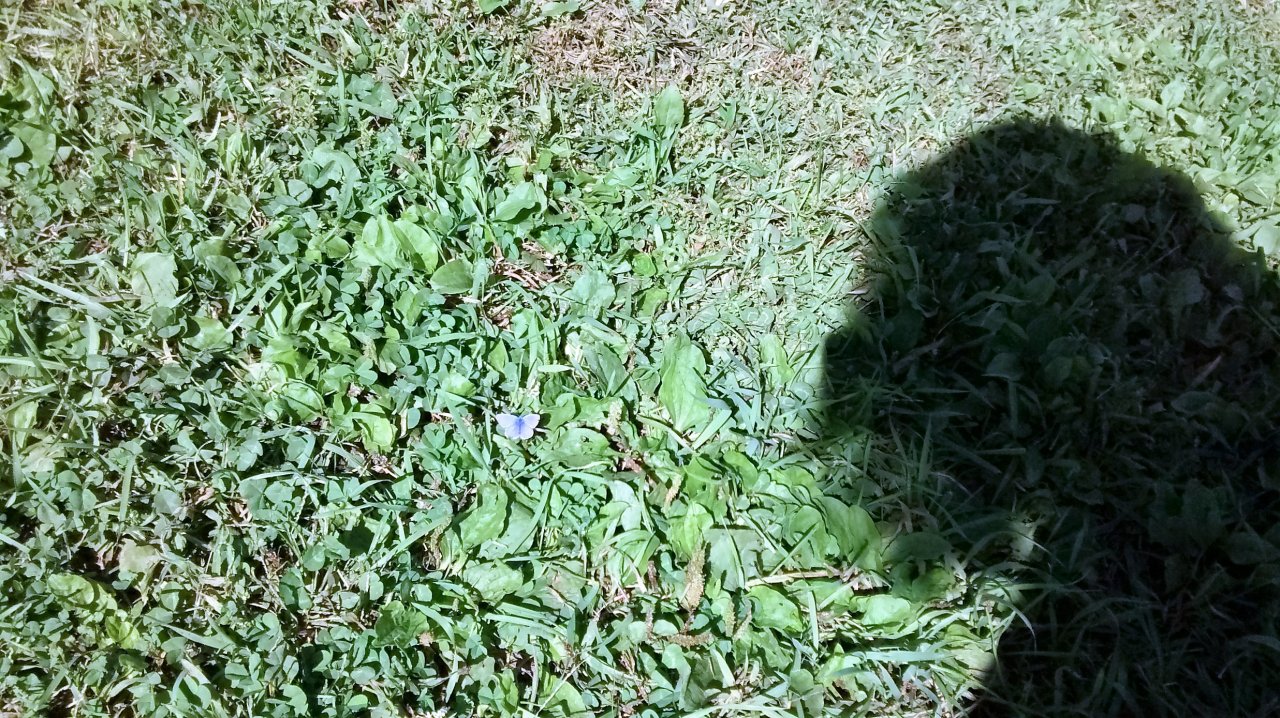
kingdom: Animalia
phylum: Arthropoda
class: Insecta
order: Lepidoptera
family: Lycaenidae
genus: Polyommatus
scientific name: Polyommatus icarus
